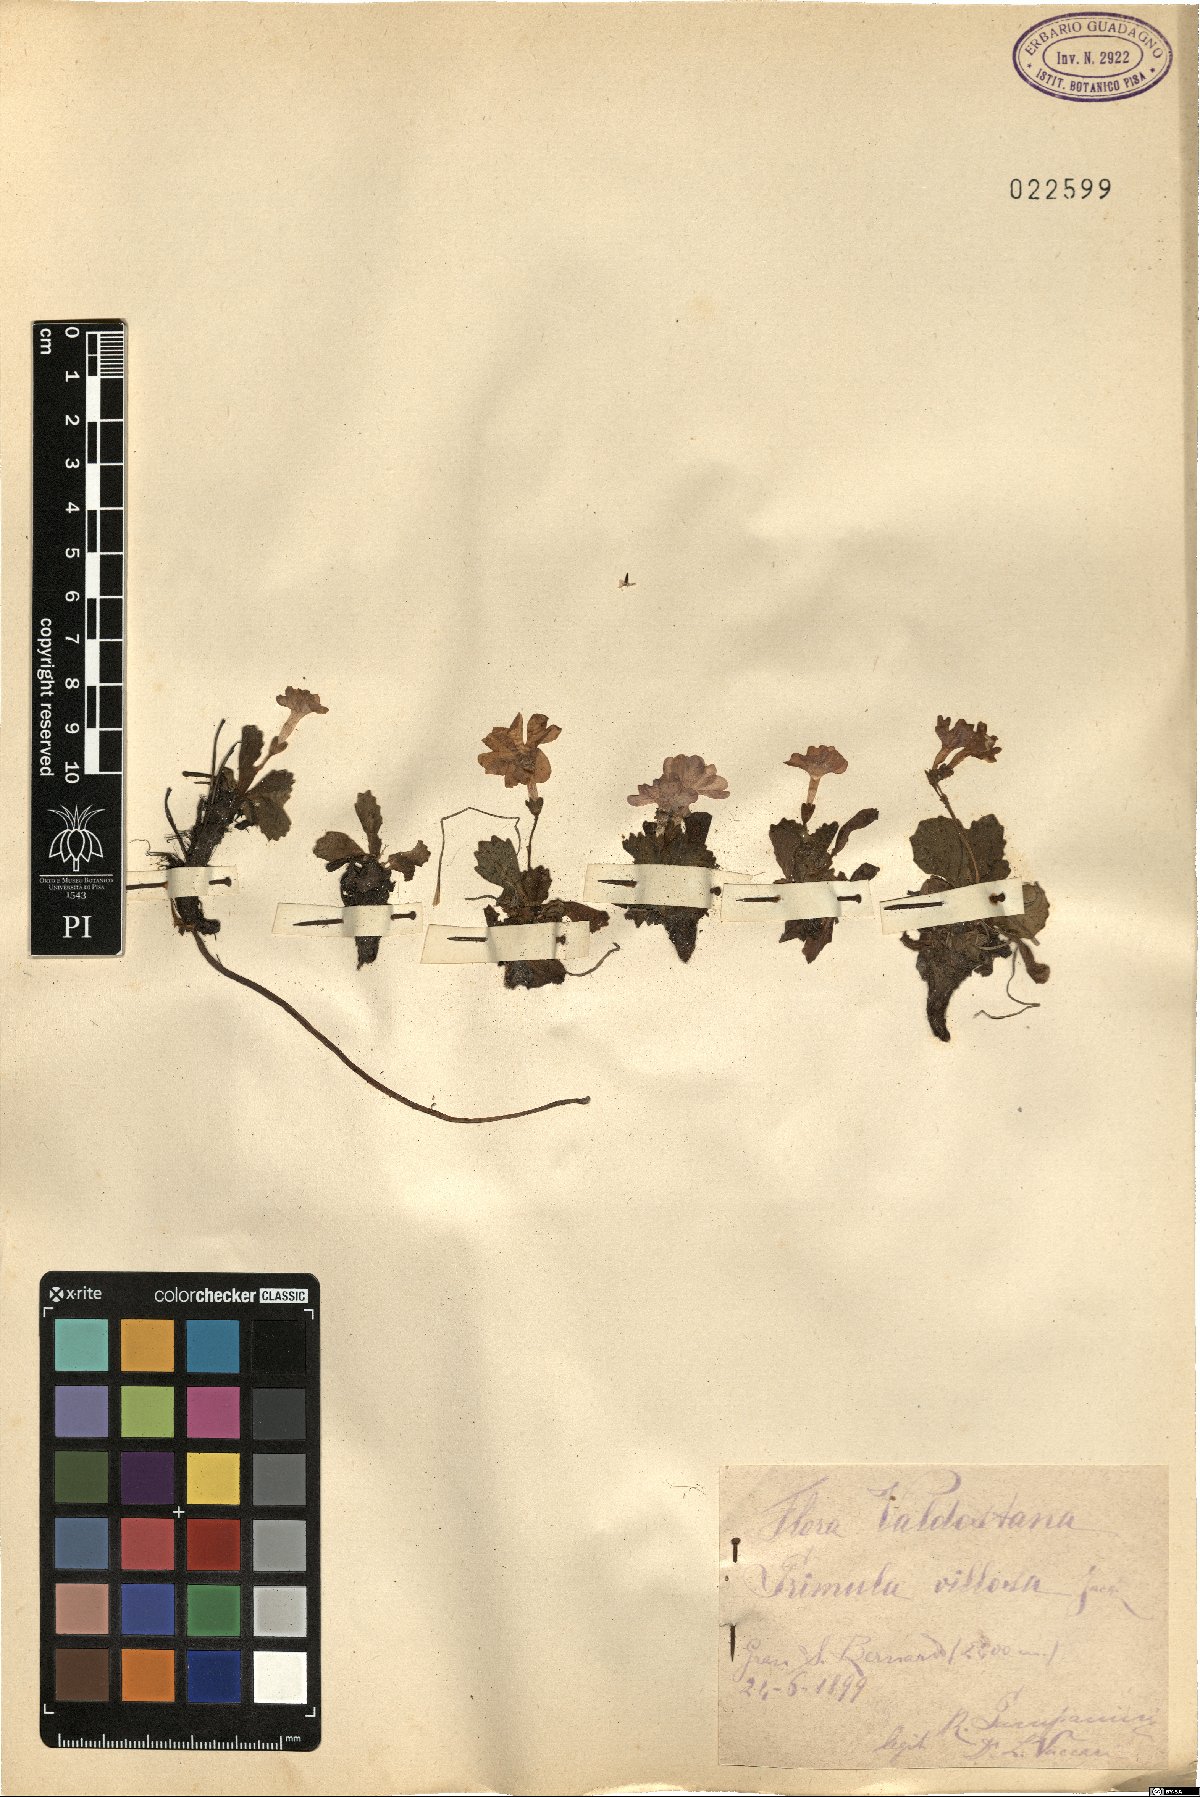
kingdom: Plantae
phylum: Tracheophyta
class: Magnoliopsida
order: Ericales
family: Primulaceae
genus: Primula
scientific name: Primula villosa
